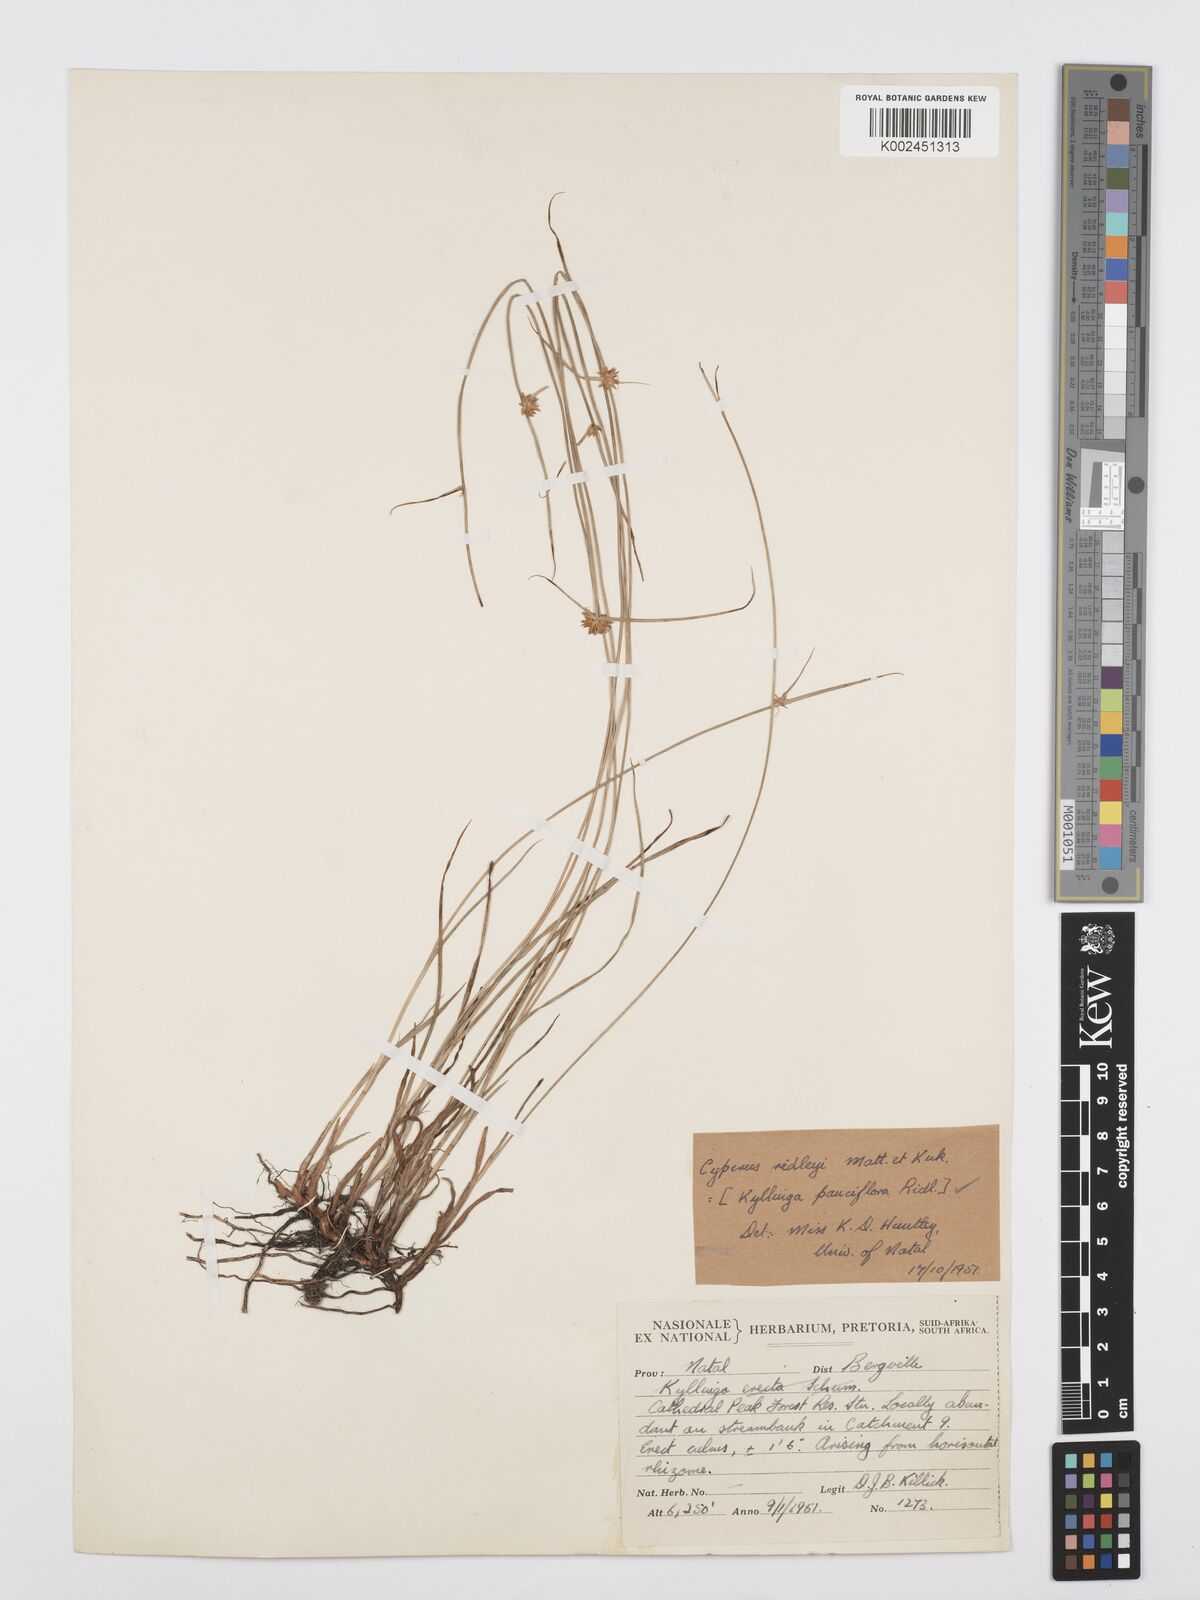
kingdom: Plantae
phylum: Tracheophyta
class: Liliopsida
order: Poales
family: Cyperaceae
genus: Cyperus
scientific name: Cyperus
